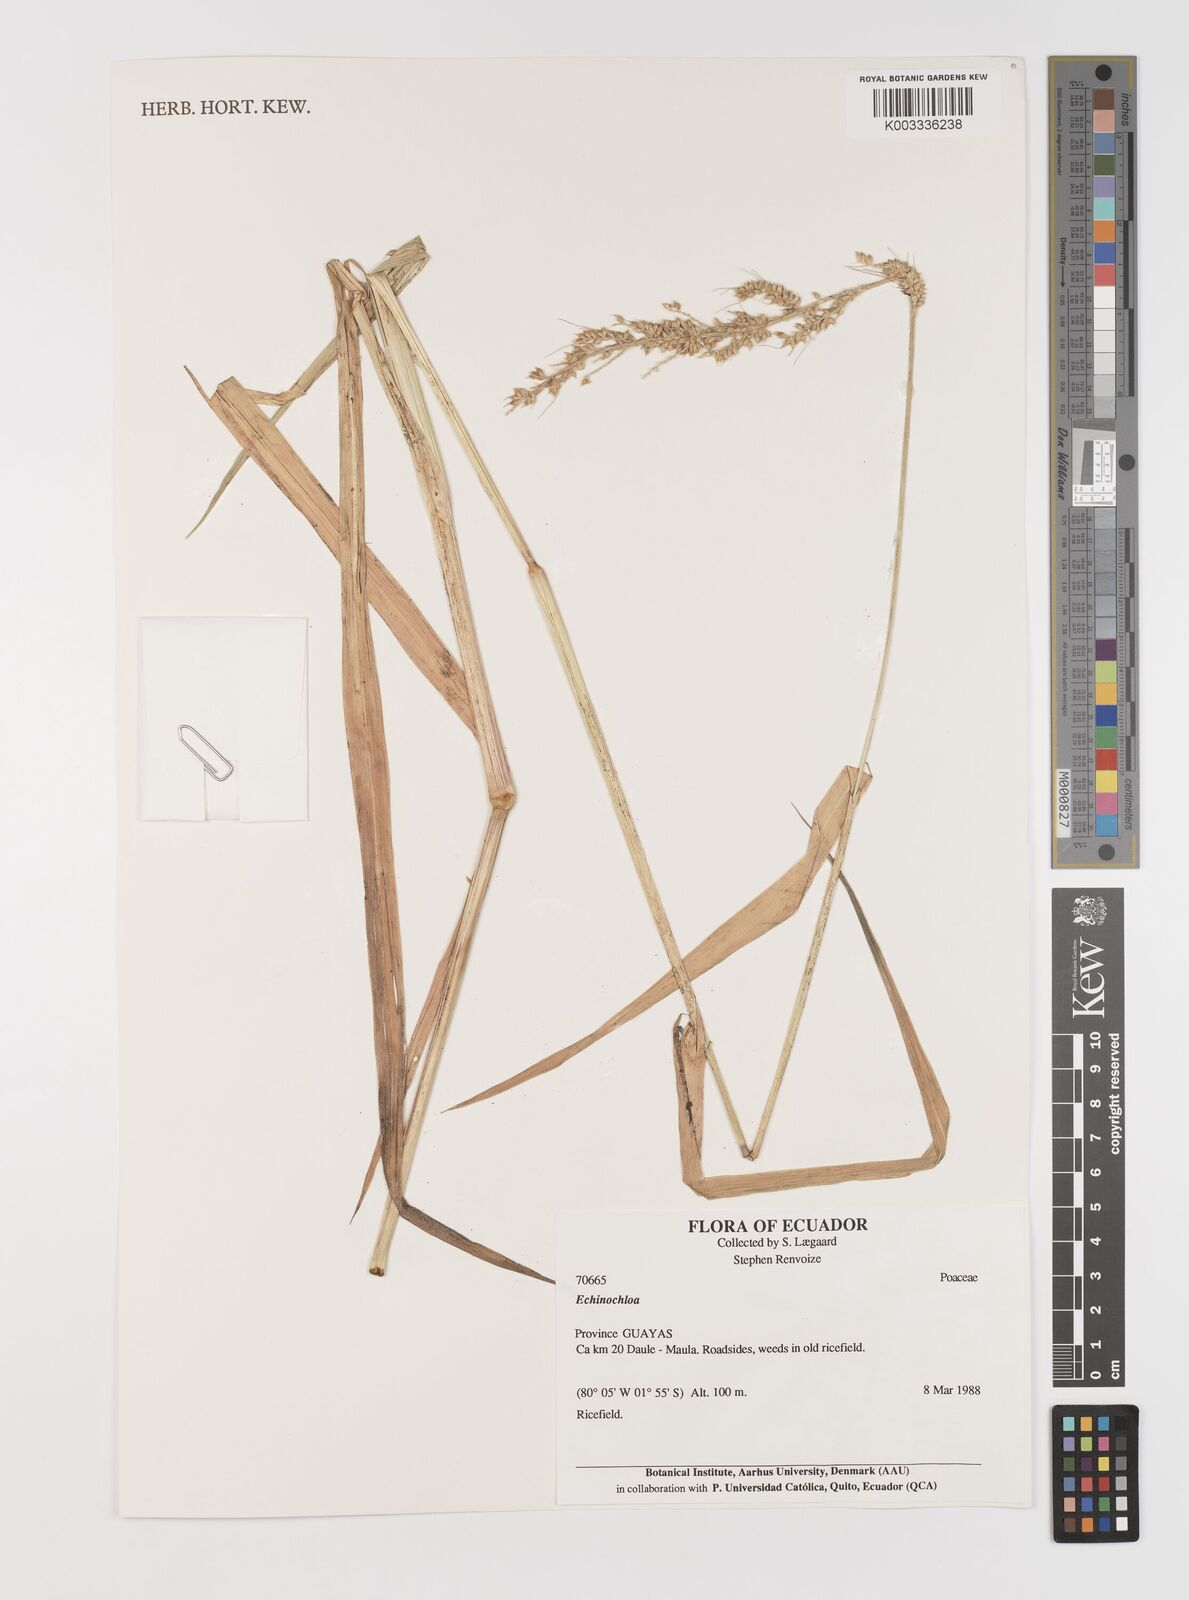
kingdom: Plantae
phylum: Tracheophyta
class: Liliopsida
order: Poales
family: Poaceae
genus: Echinochloa
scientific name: Echinochloa crus-galli
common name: Cockspur
